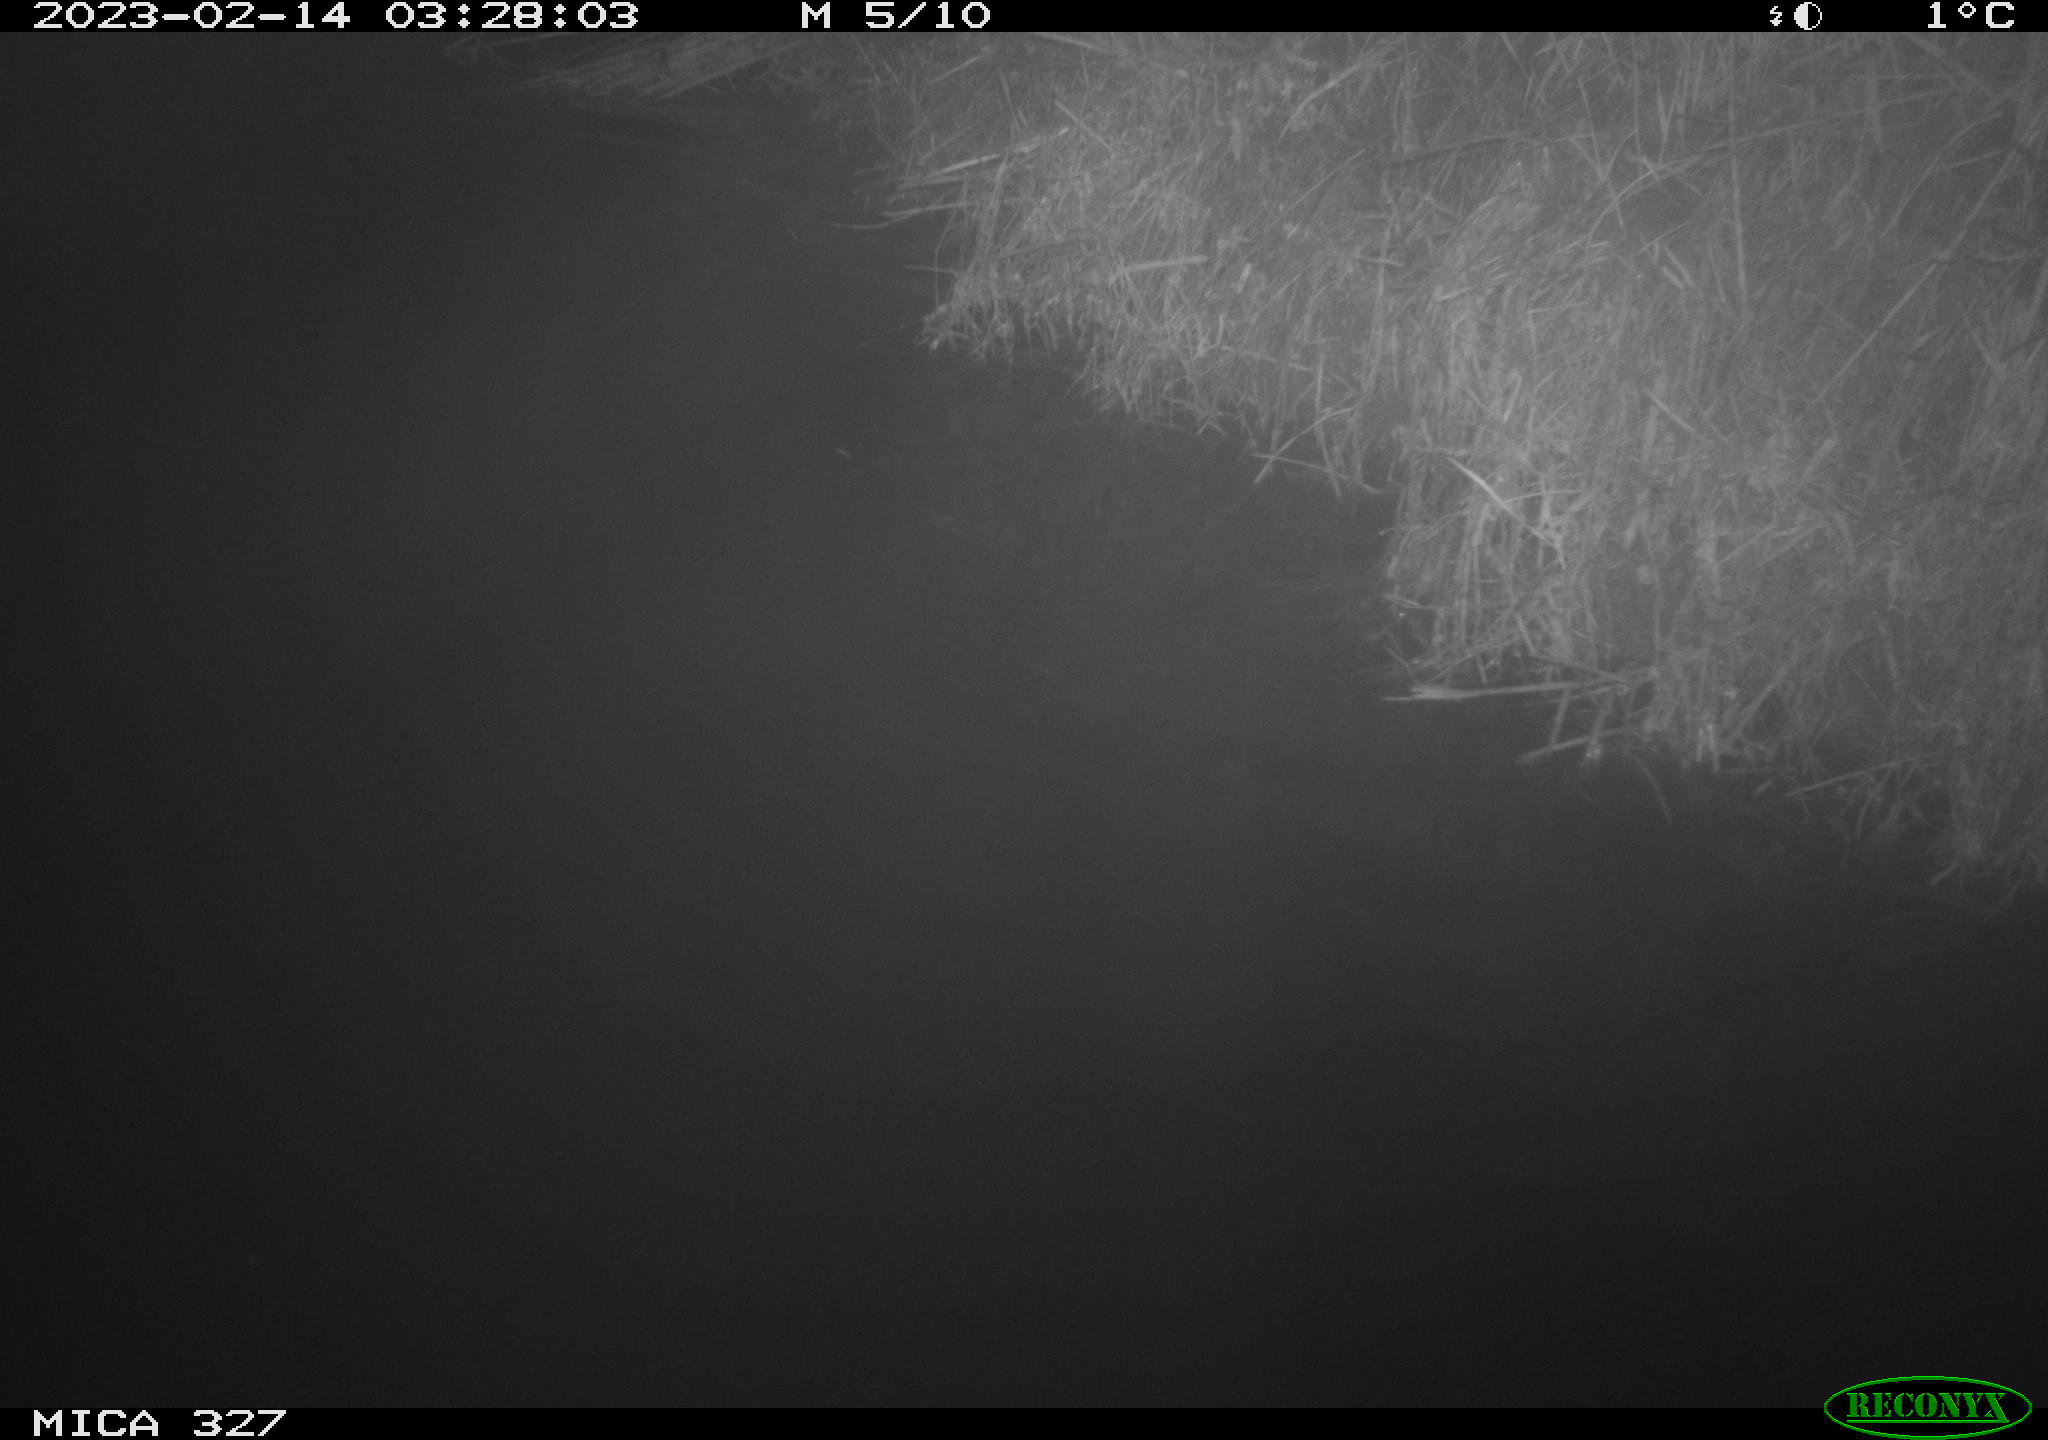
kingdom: Animalia
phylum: Chordata
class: Mammalia
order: Rodentia
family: Cricetidae
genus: Ondatra
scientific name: Ondatra zibethicus
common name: Muskrat
